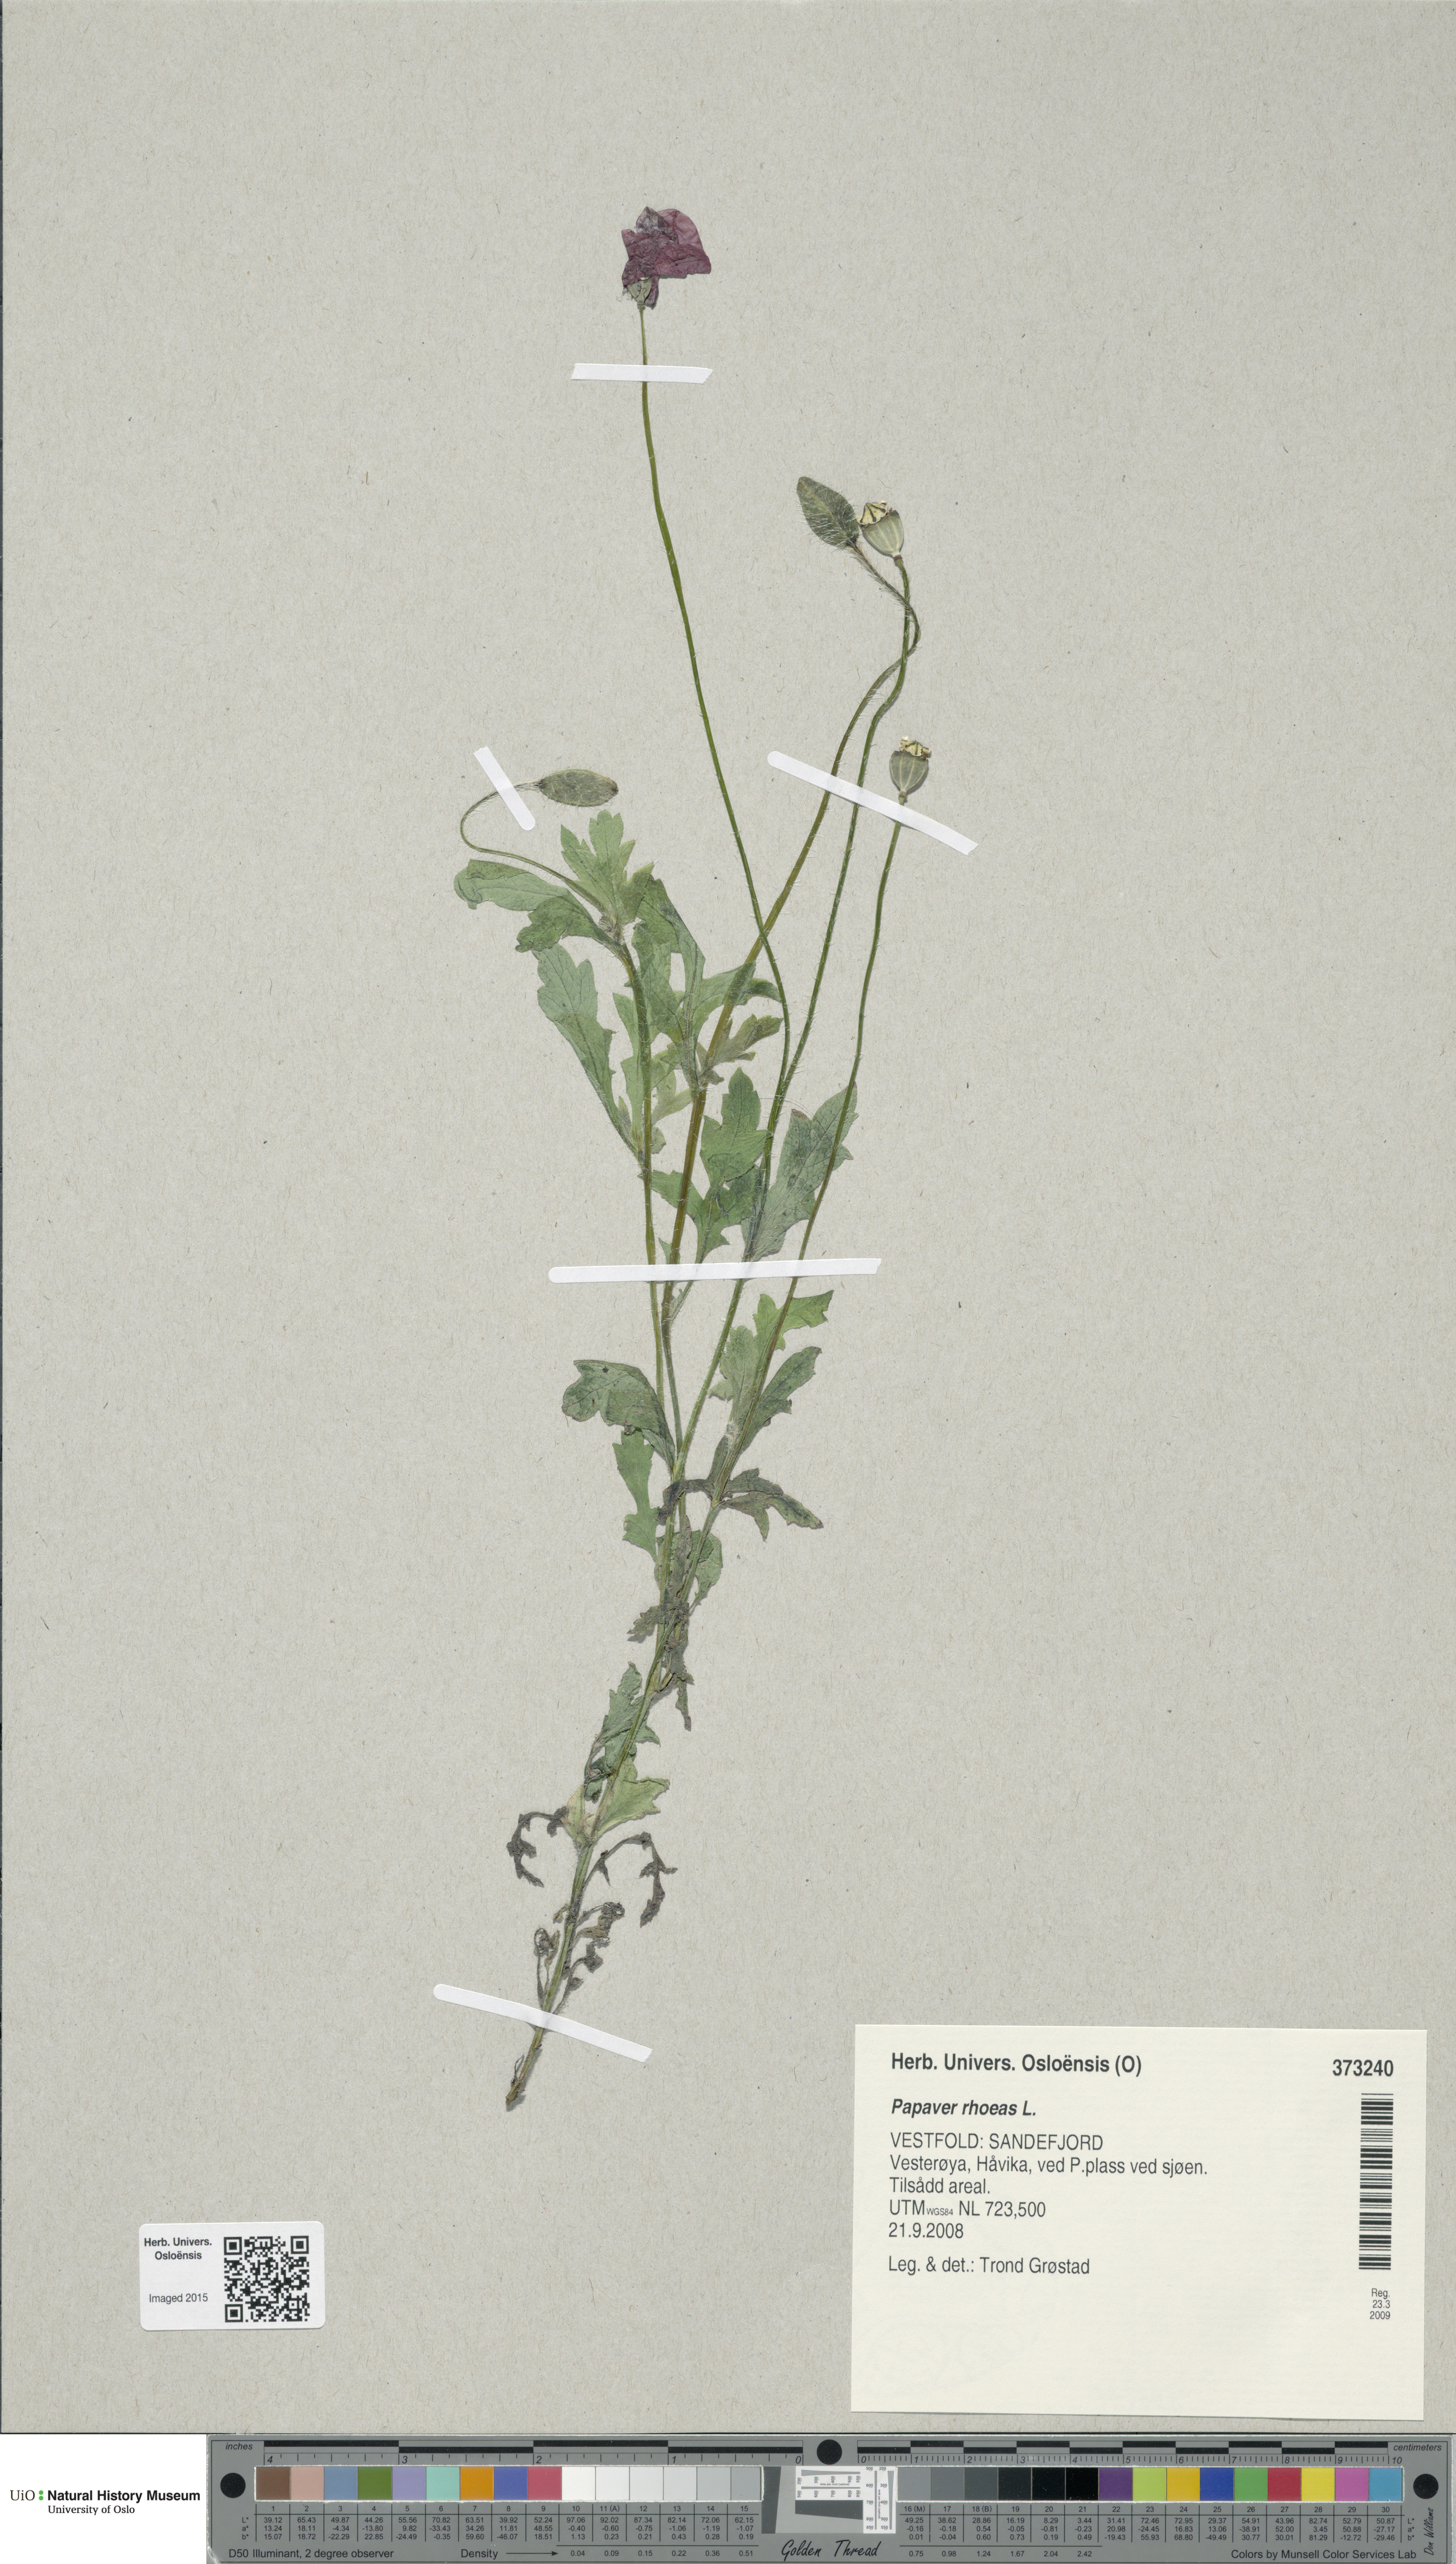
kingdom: Plantae
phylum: Tracheophyta
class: Magnoliopsida
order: Ranunculales
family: Papaveraceae
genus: Papaver
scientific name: Papaver rhoeas
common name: Corn poppy
